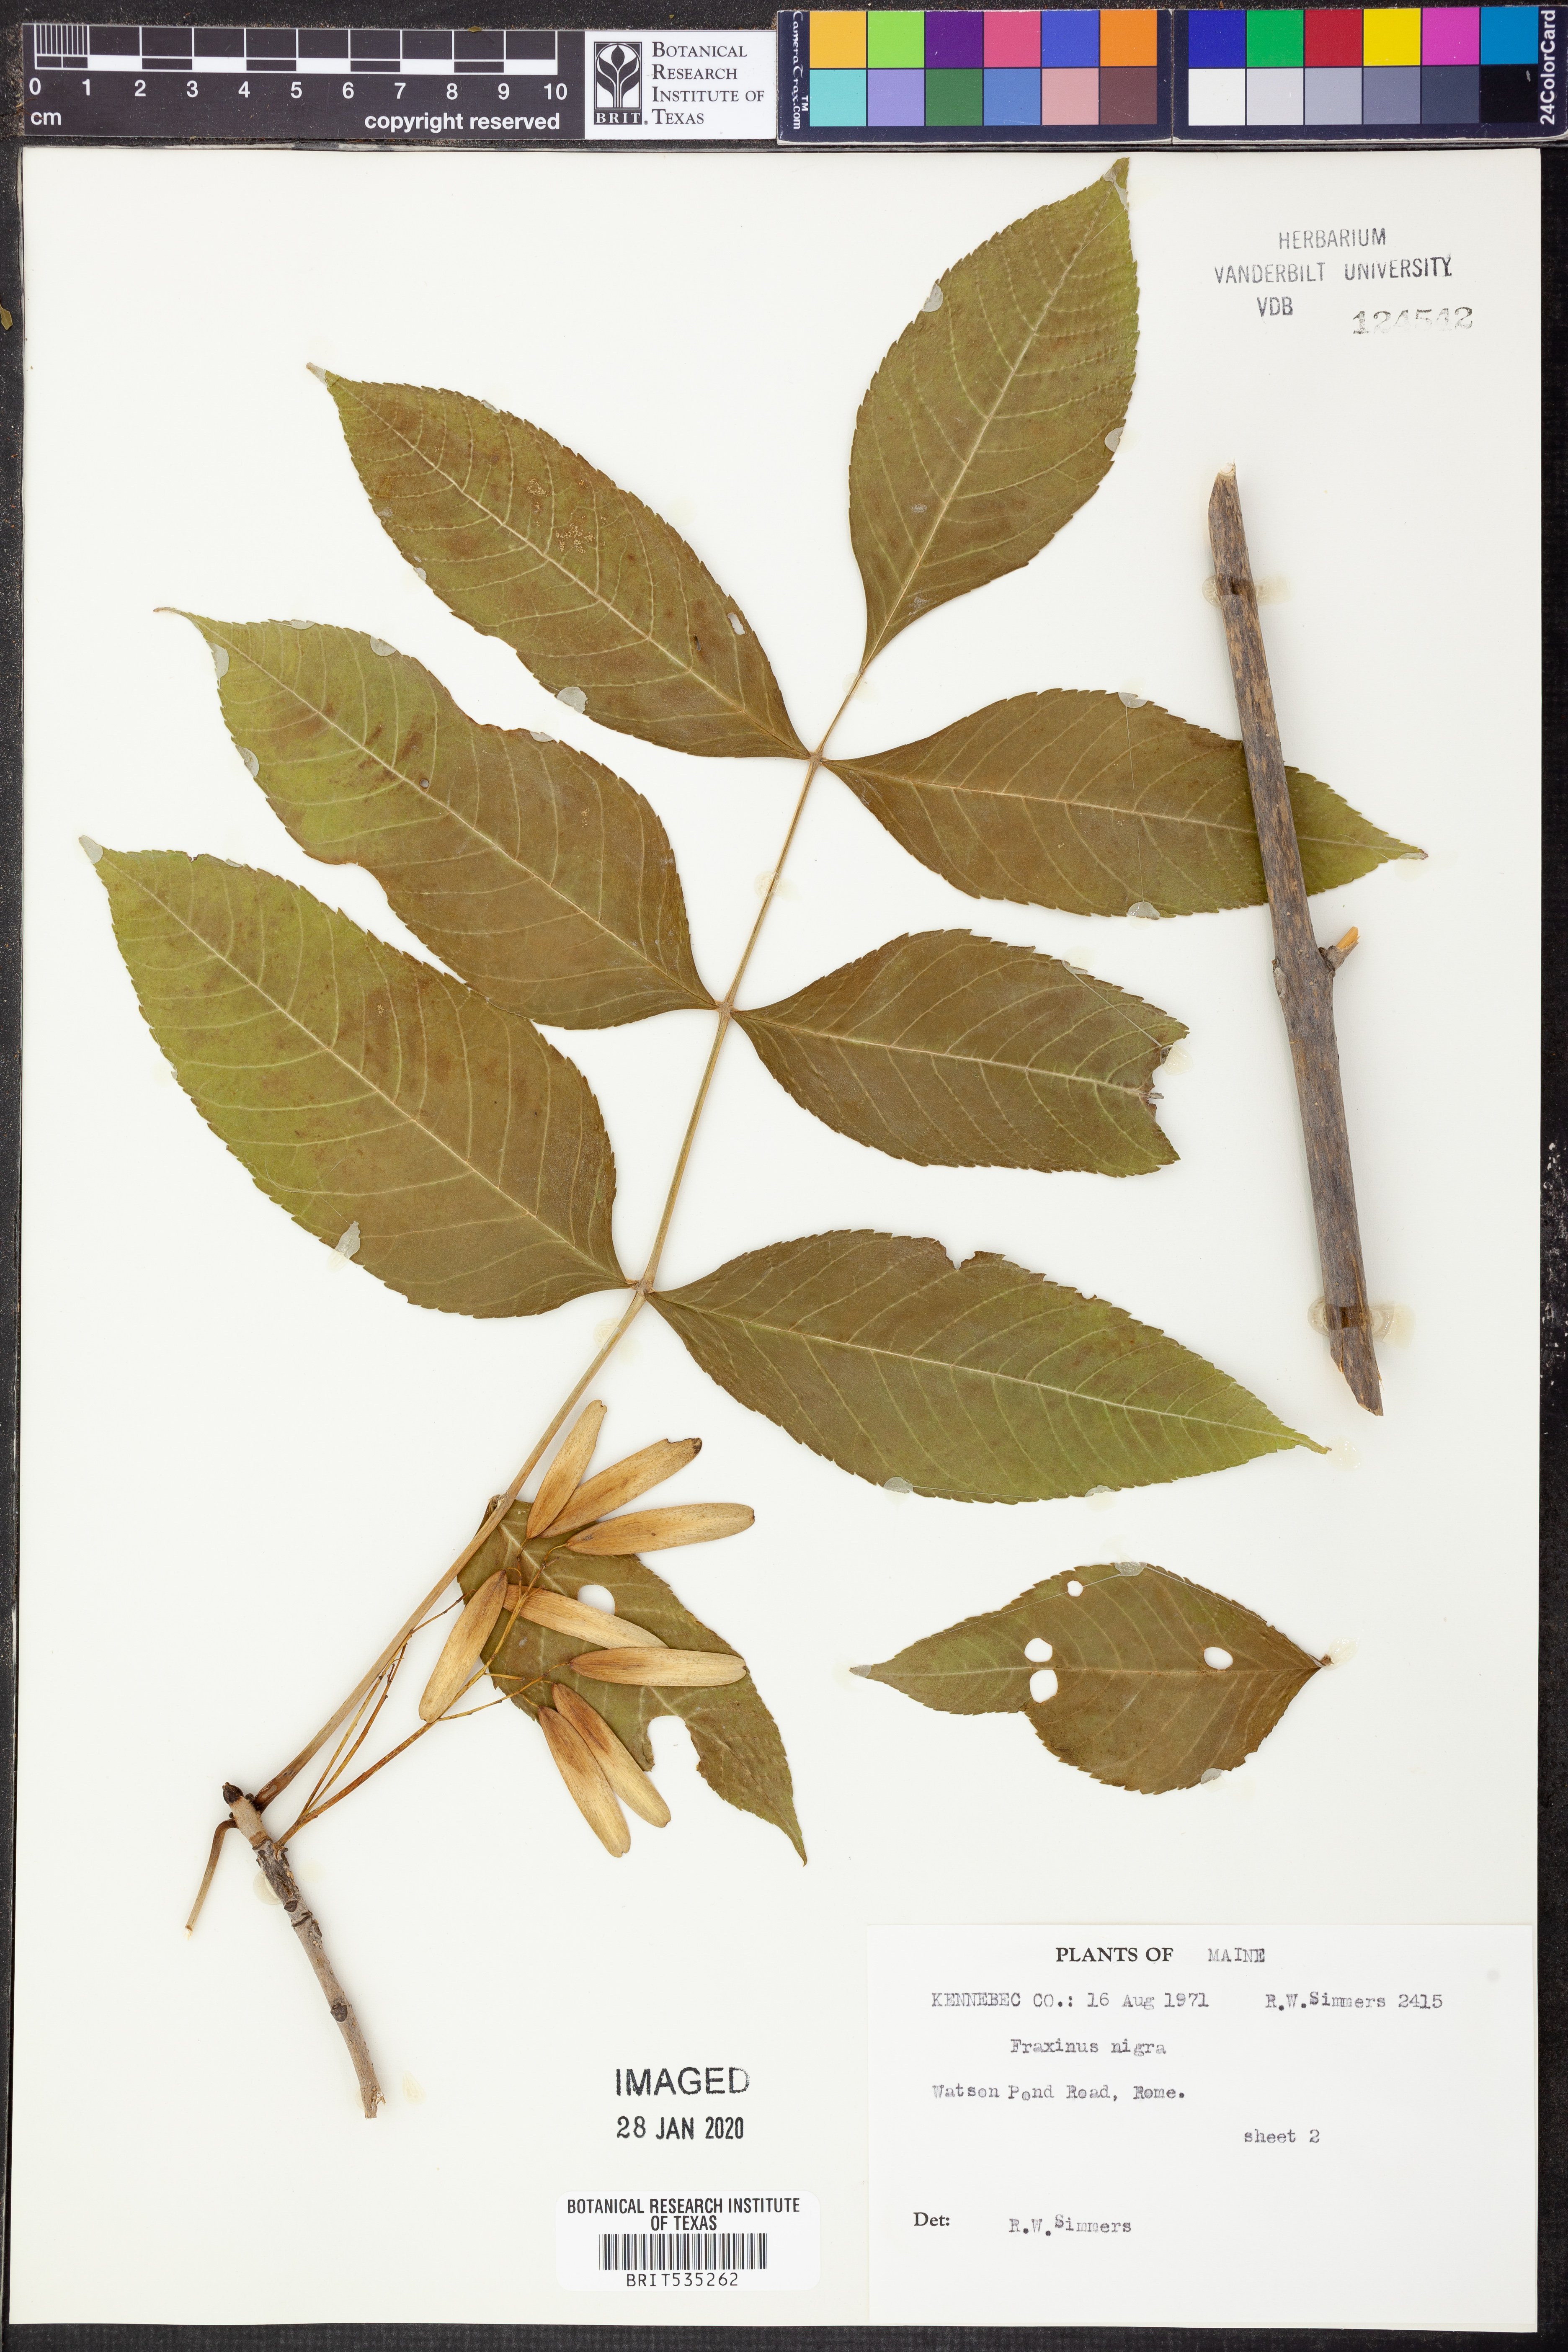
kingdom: Plantae
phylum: Tracheophyta
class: Magnoliopsida
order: Lamiales
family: Oleaceae
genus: Fraxinus
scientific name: Fraxinus nigra
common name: Black ash
